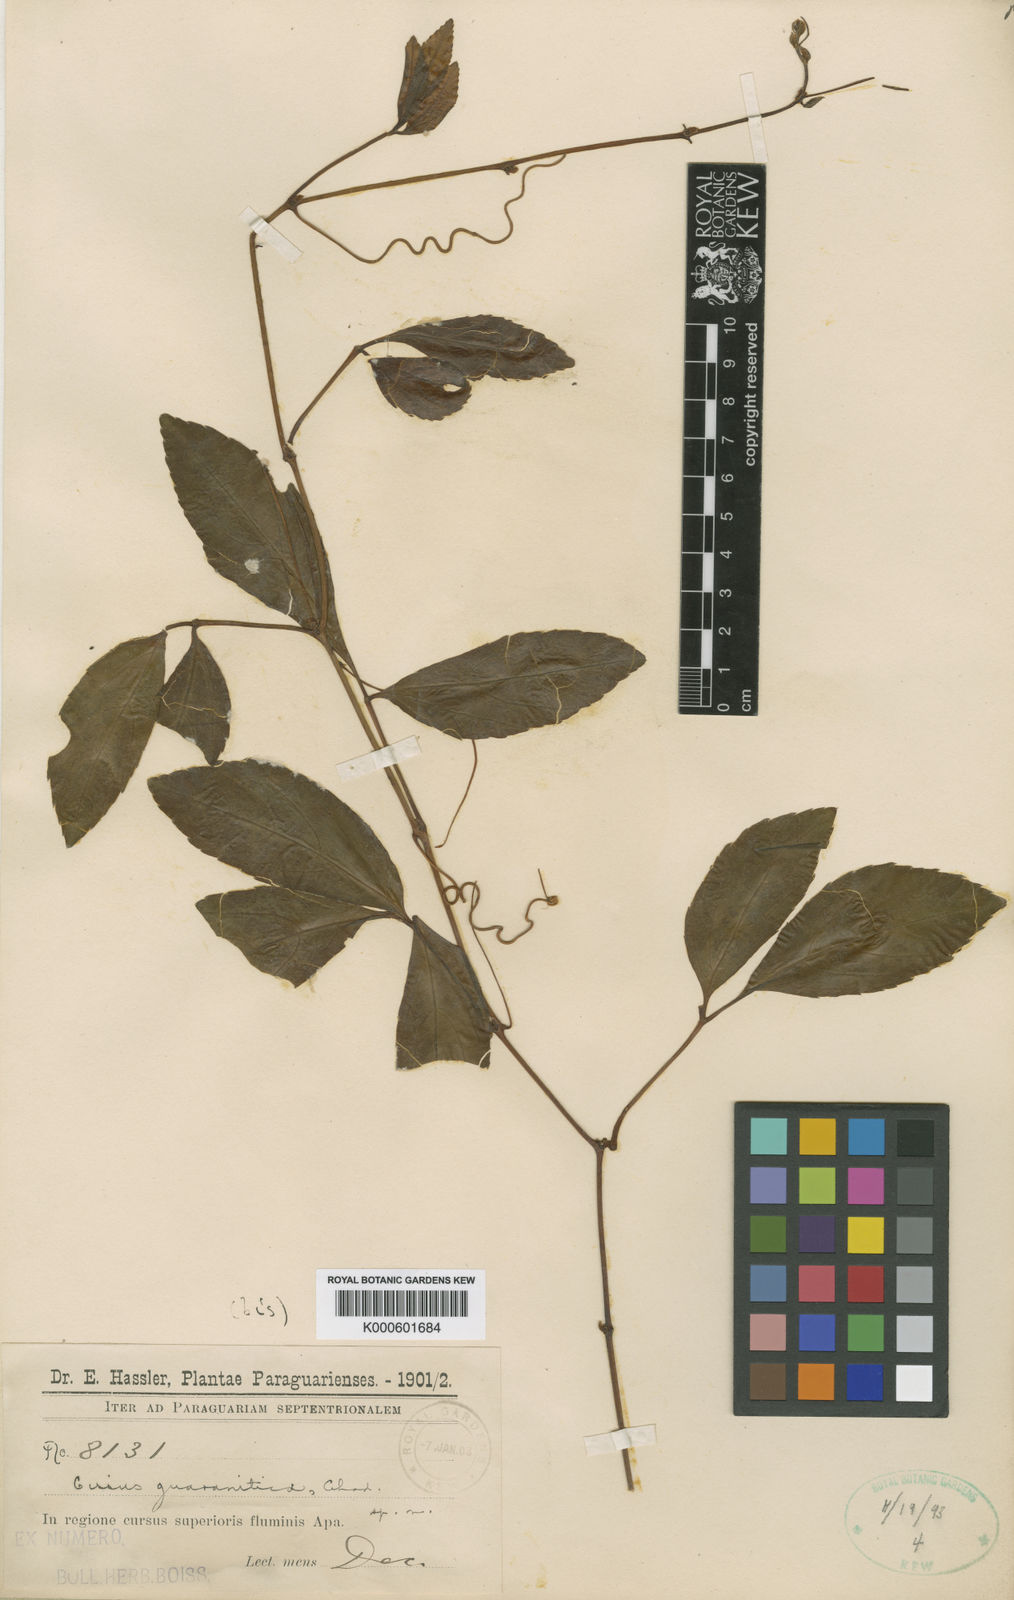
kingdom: Plantae
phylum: Tracheophyta
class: Magnoliopsida
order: Vitales
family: Vitaceae
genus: Cissus
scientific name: Cissus erosa
